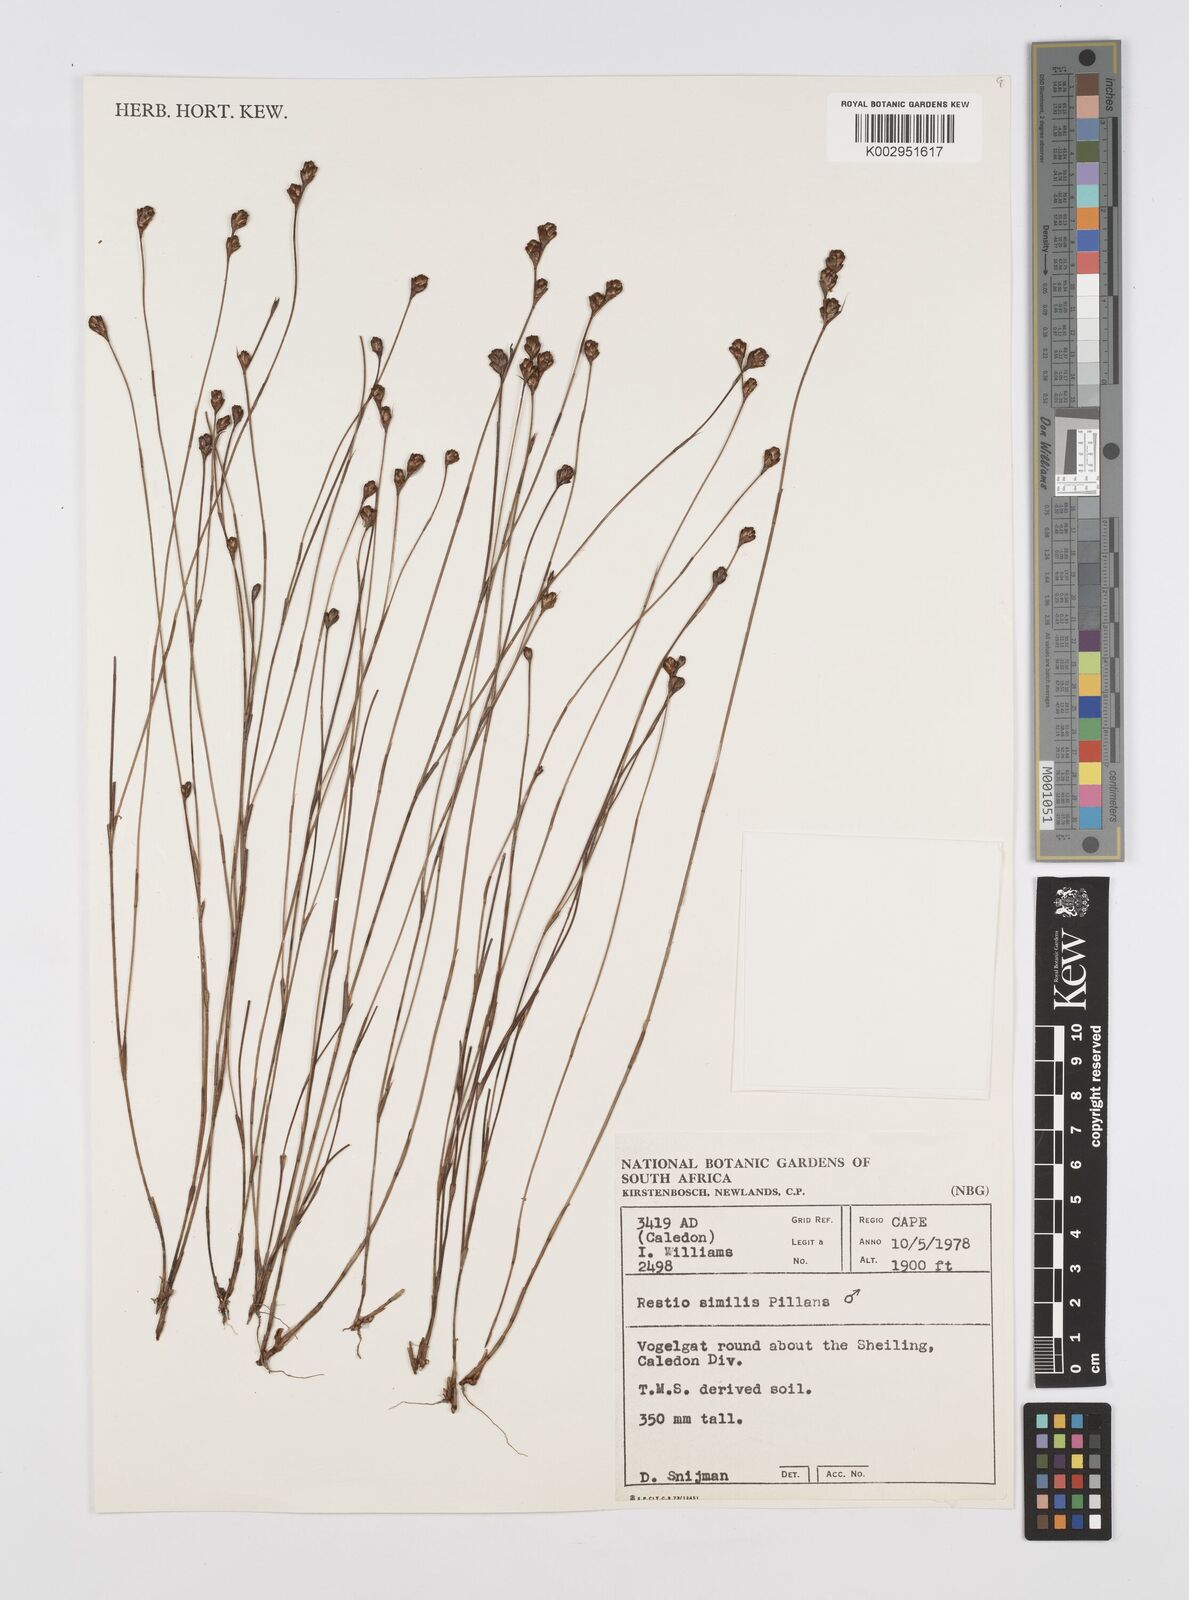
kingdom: Plantae
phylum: Tracheophyta
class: Liliopsida
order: Poales
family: Restionaceae
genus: Restio
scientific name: Restio similis
